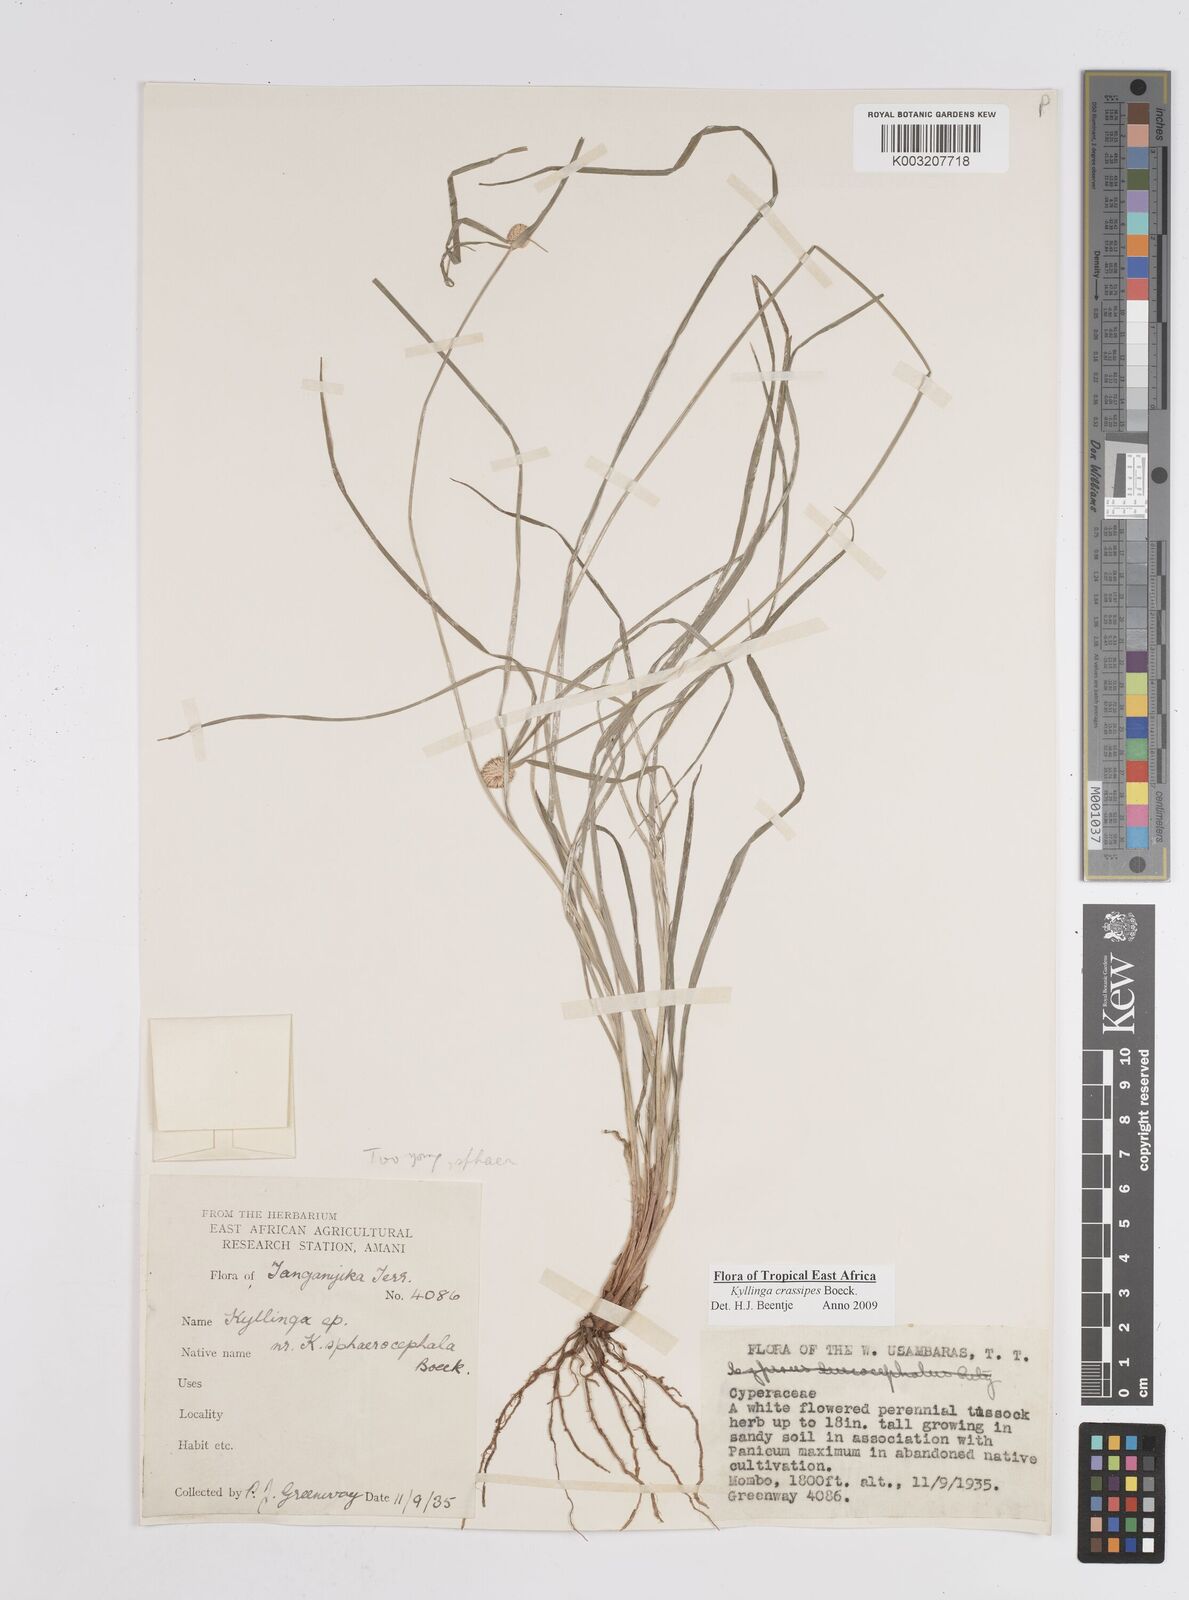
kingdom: Plantae
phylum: Tracheophyta
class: Liliopsida
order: Poales
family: Cyperaceae
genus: Cyperus
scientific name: Cyperus
